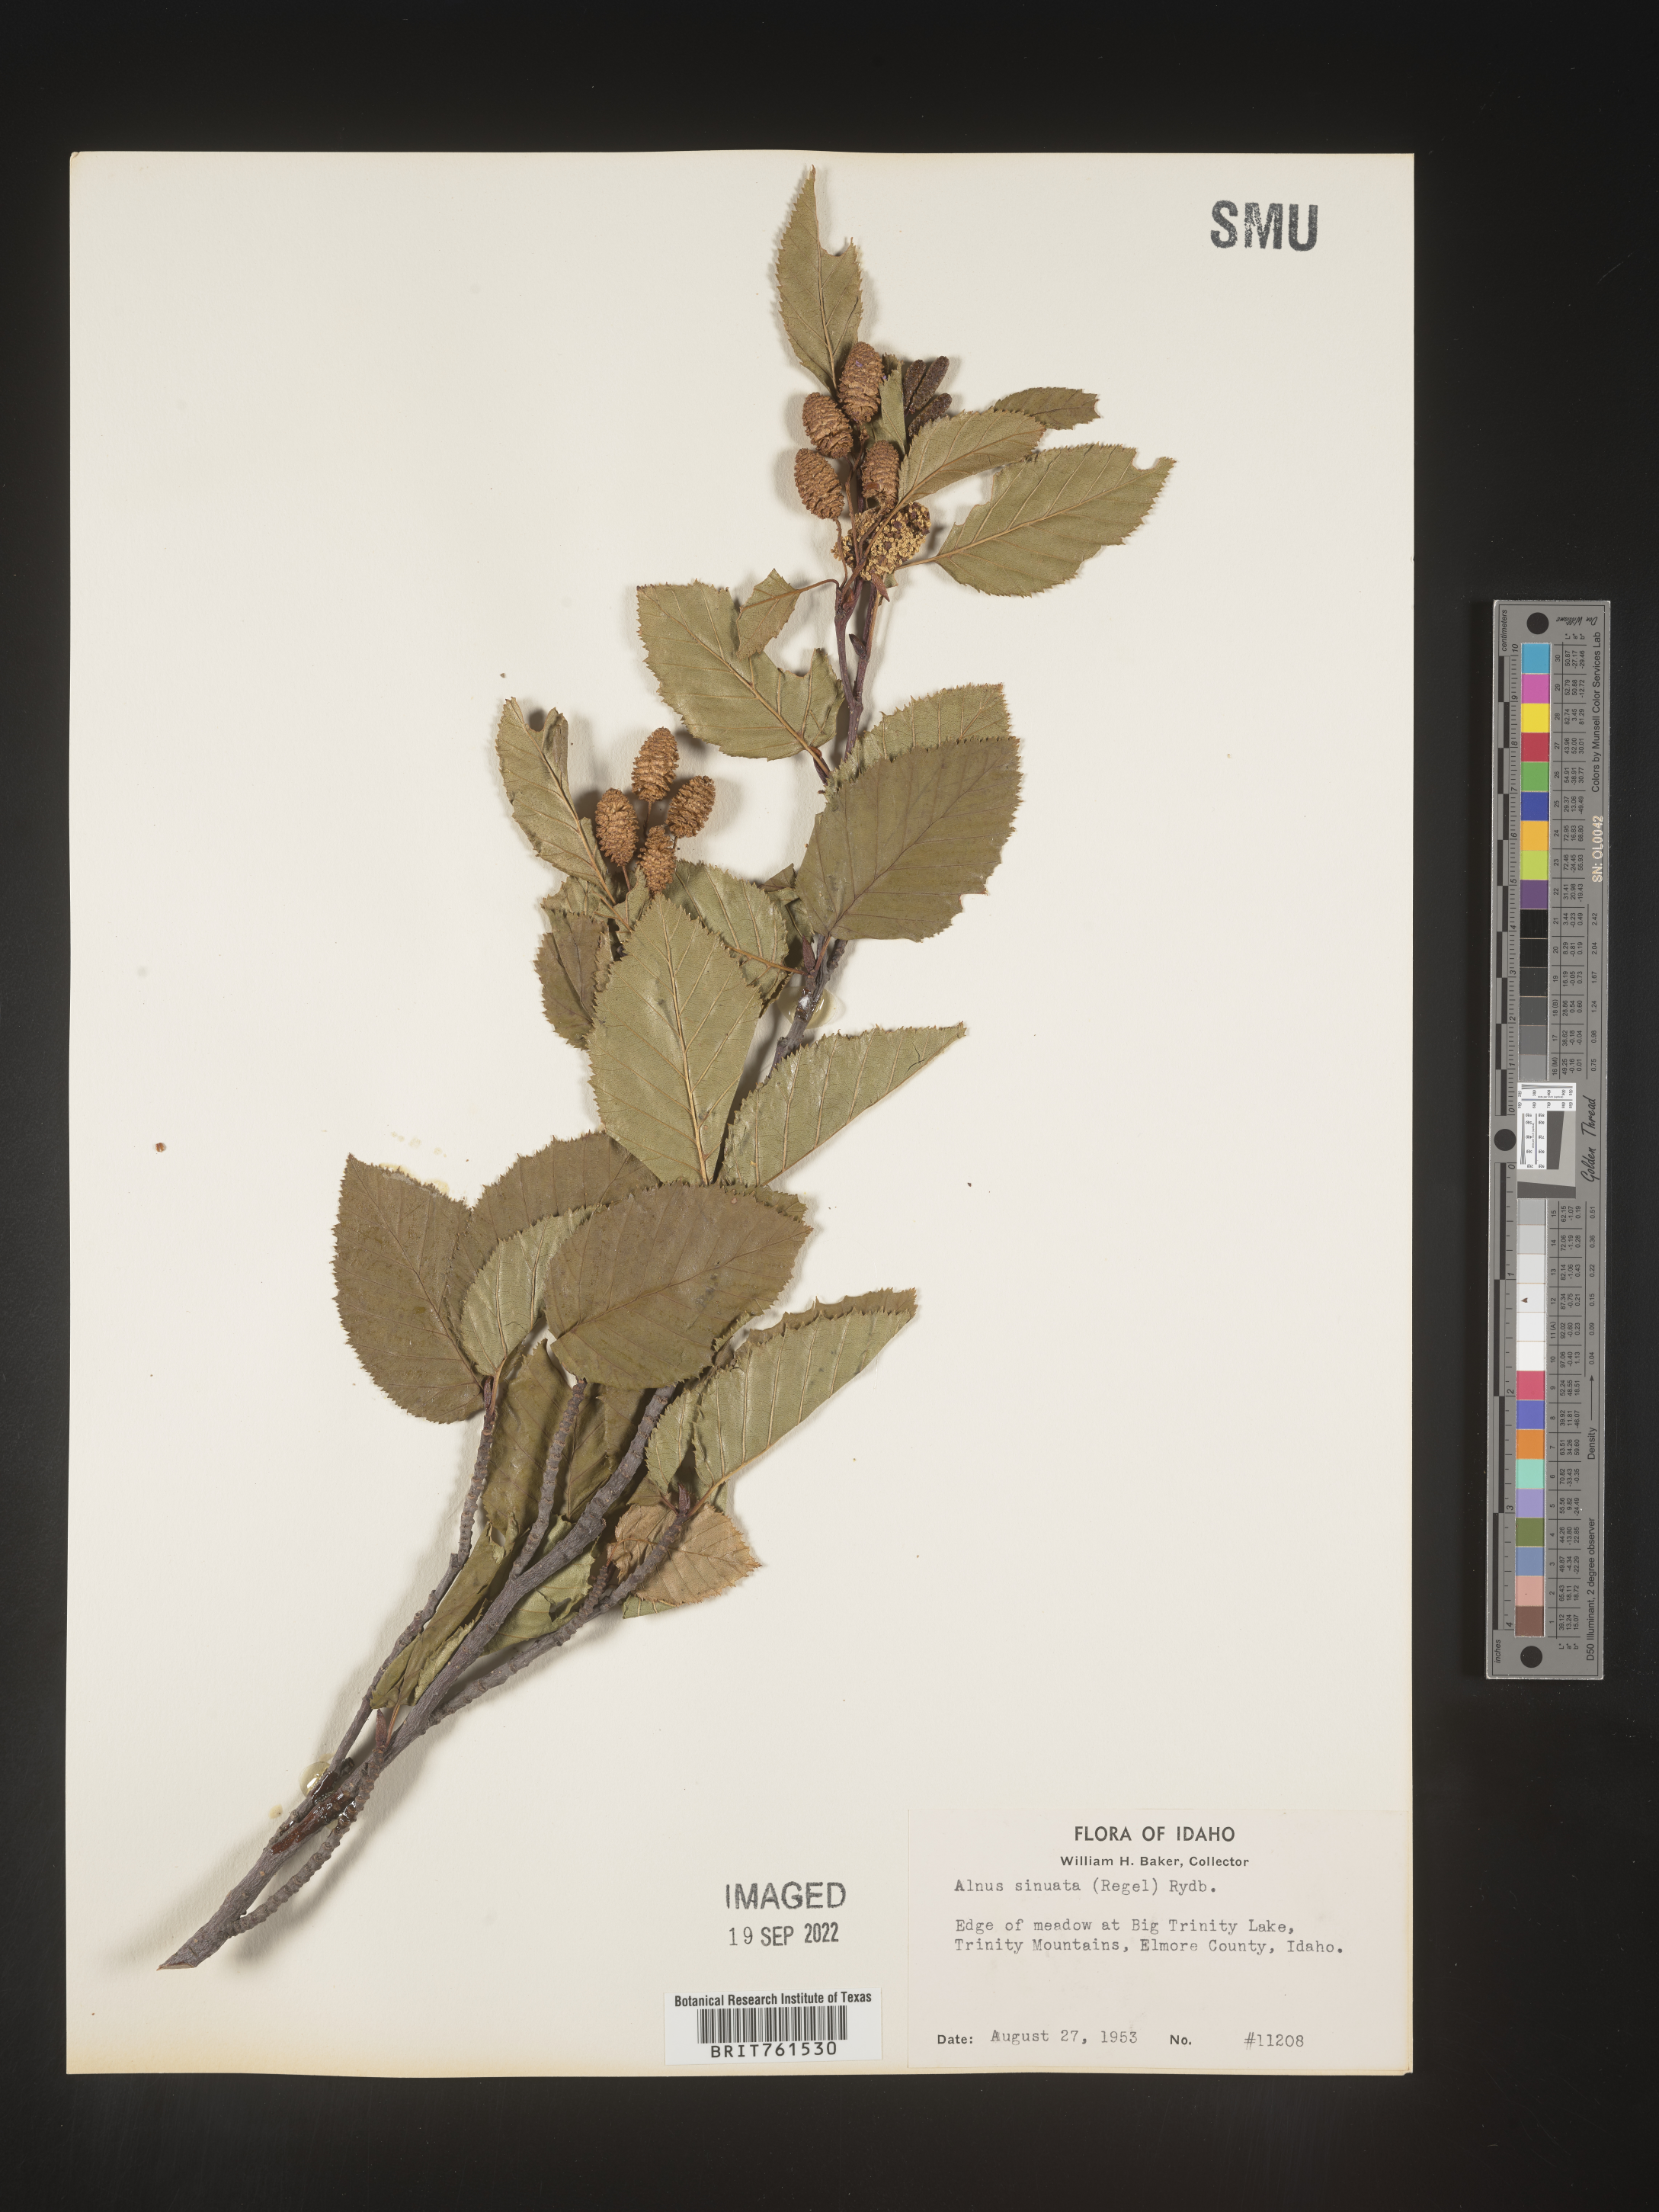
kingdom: Plantae
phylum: Tracheophyta
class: Magnoliopsida
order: Fagales
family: Betulaceae
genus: Alnus
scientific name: Alnus alnobetula
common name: Green alder
